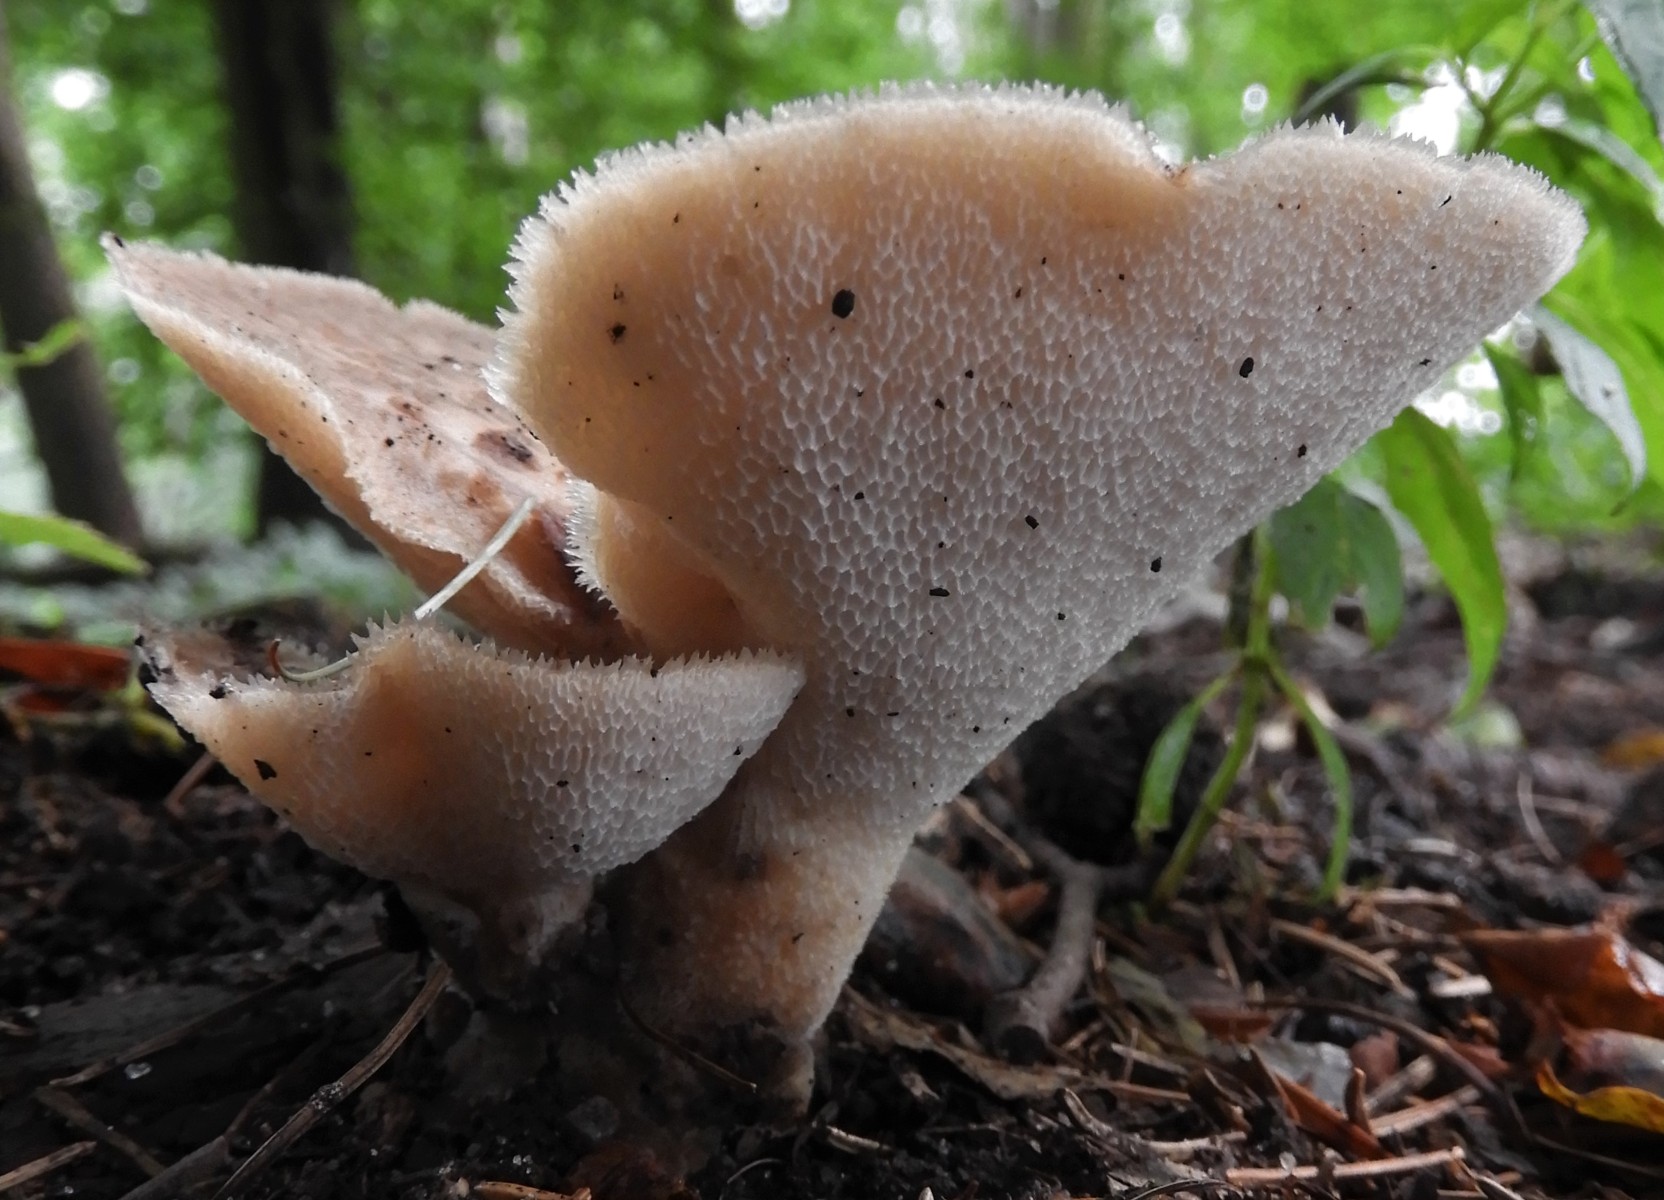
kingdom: Fungi
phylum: Basidiomycota
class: Agaricomycetes
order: Polyporales
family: Polyporaceae
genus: Polyporus
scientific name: Polyporus tuberaster
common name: knoldet stilkporesvamp
